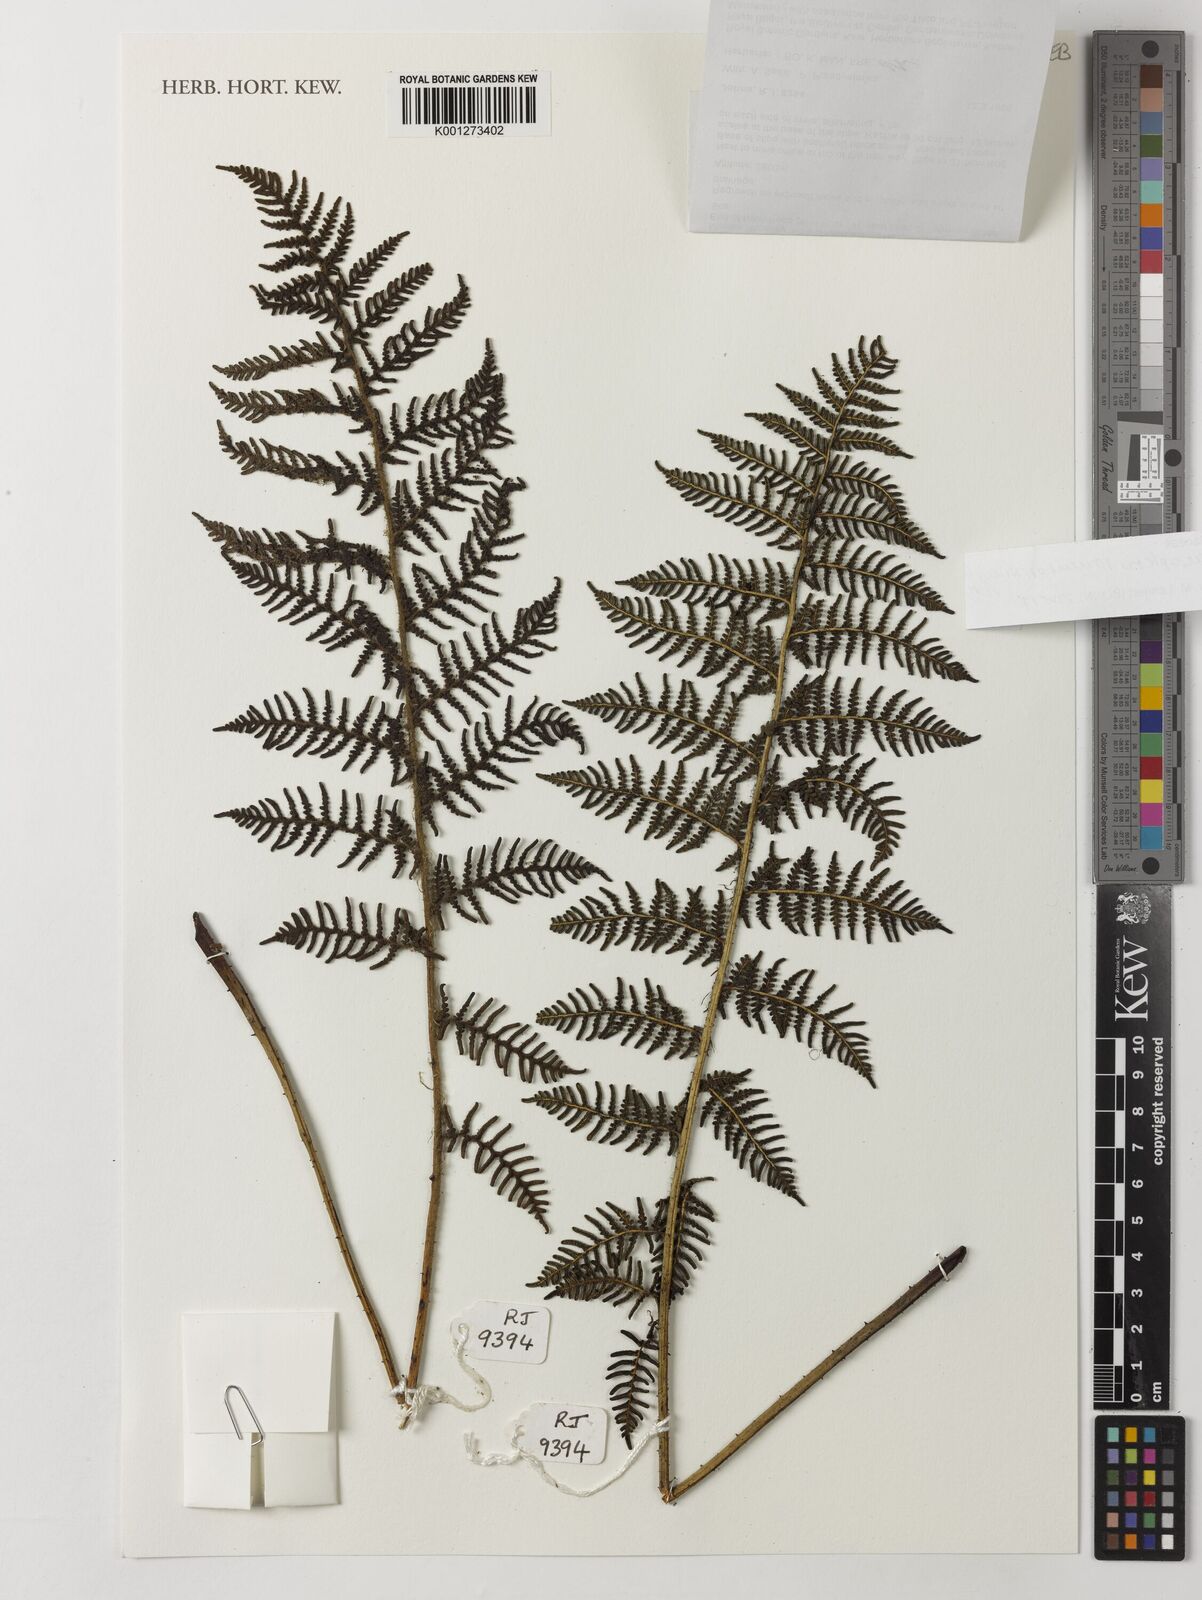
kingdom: Plantae
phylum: Tracheophyta
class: Polypodiopsida
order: Cyatheales
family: Cyatheaceae
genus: Sphaeropteris
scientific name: Sphaeropteris tomentosissima
